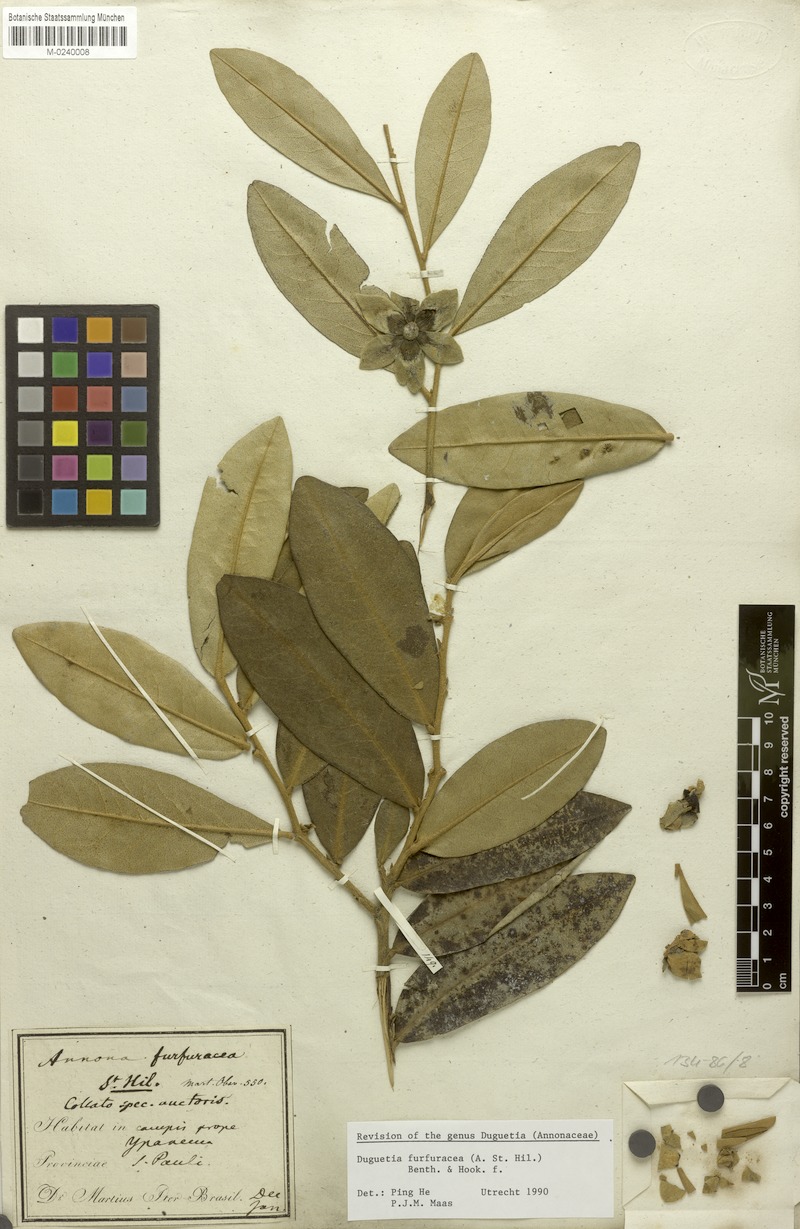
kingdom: Plantae
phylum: Tracheophyta
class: Magnoliopsida
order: Magnoliales
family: Annonaceae
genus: Duguetia
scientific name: Duguetia furfuracea
